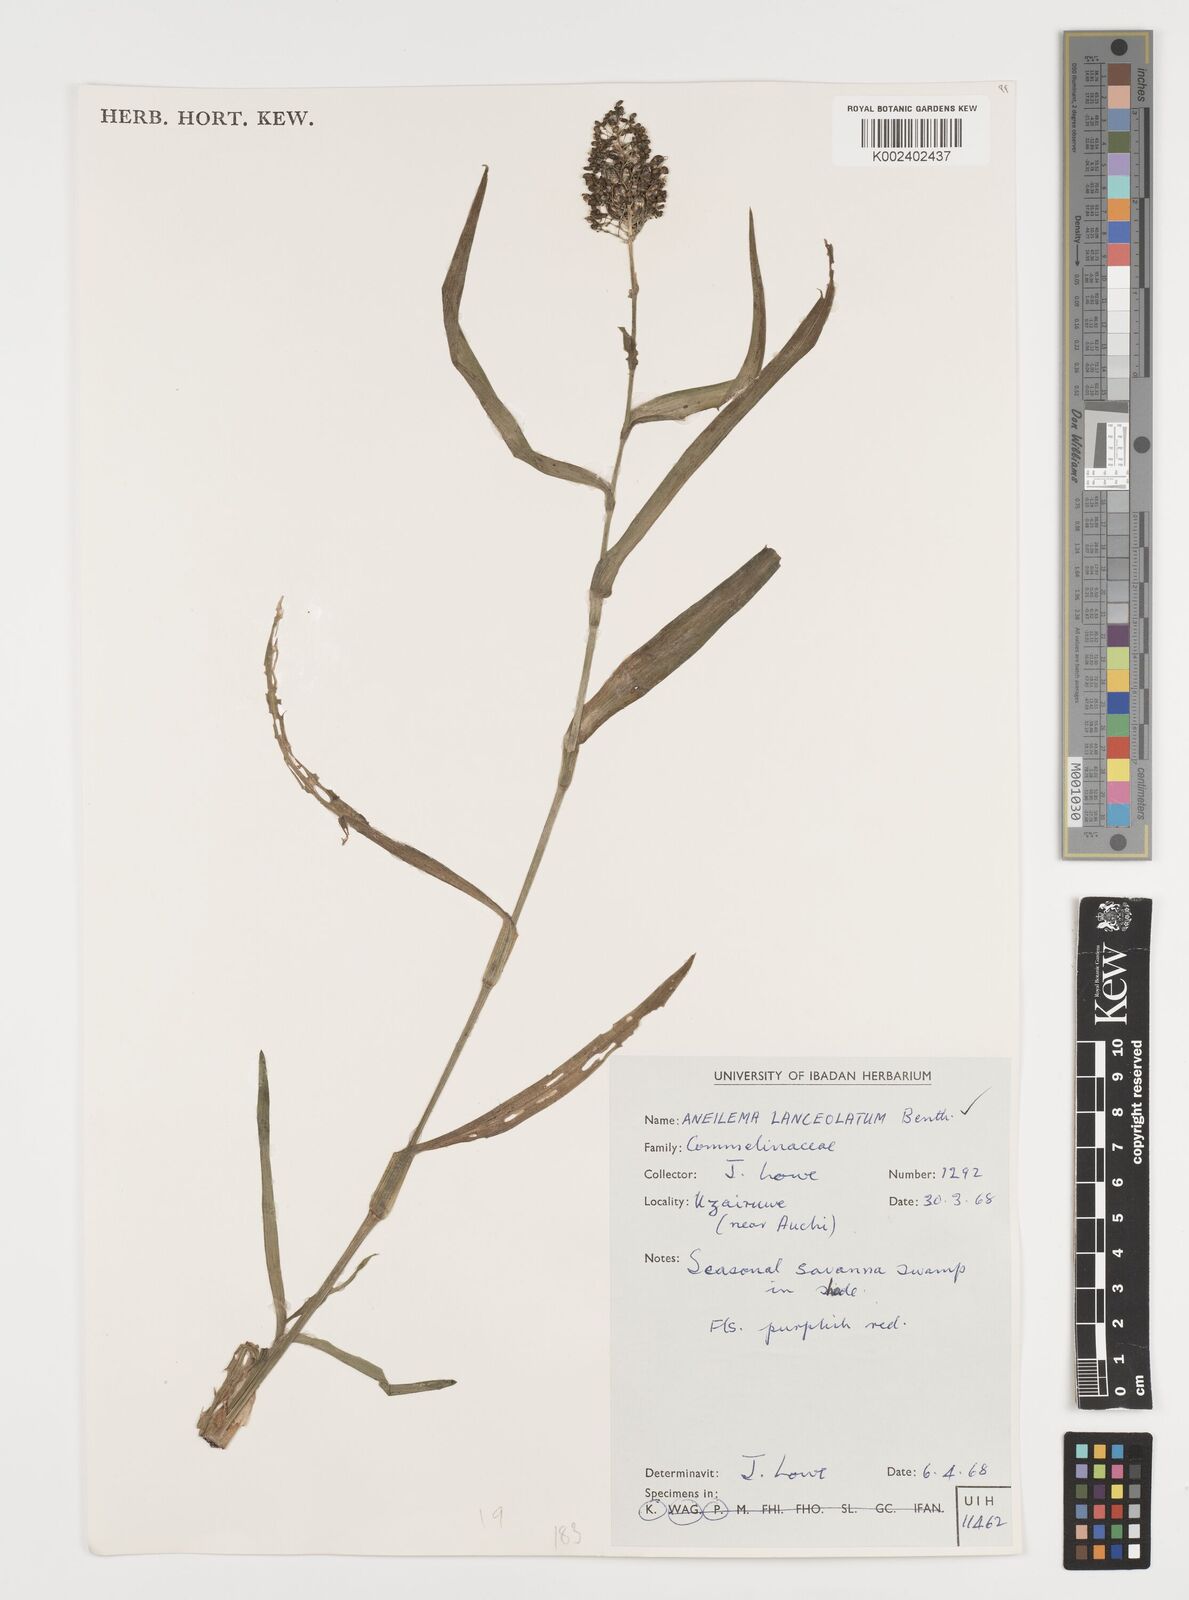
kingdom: Plantae
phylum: Tracheophyta
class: Liliopsida
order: Commelinales
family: Commelinaceae
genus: Aneilema
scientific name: Aneilema lanceolatum
